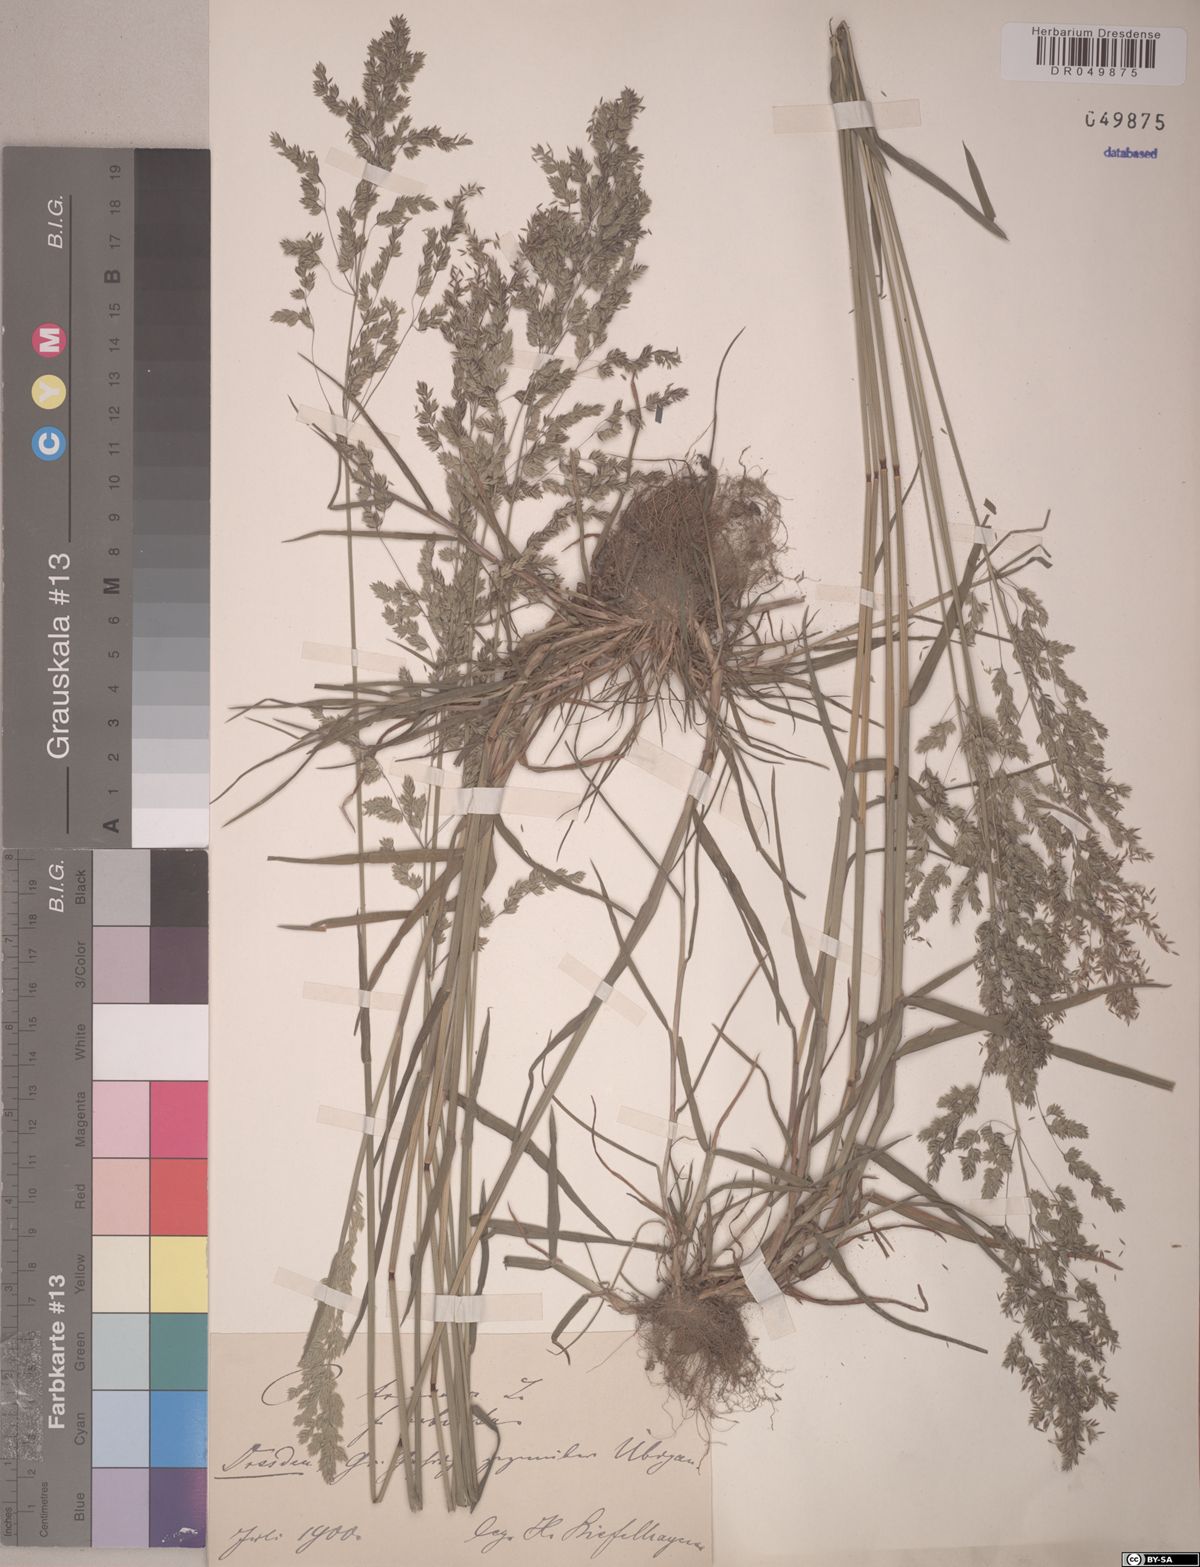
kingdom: Plantae
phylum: Tracheophyta
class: Liliopsida
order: Poales
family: Poaceae
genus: Poa
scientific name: Poa trivialis
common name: Rough bluegrass
